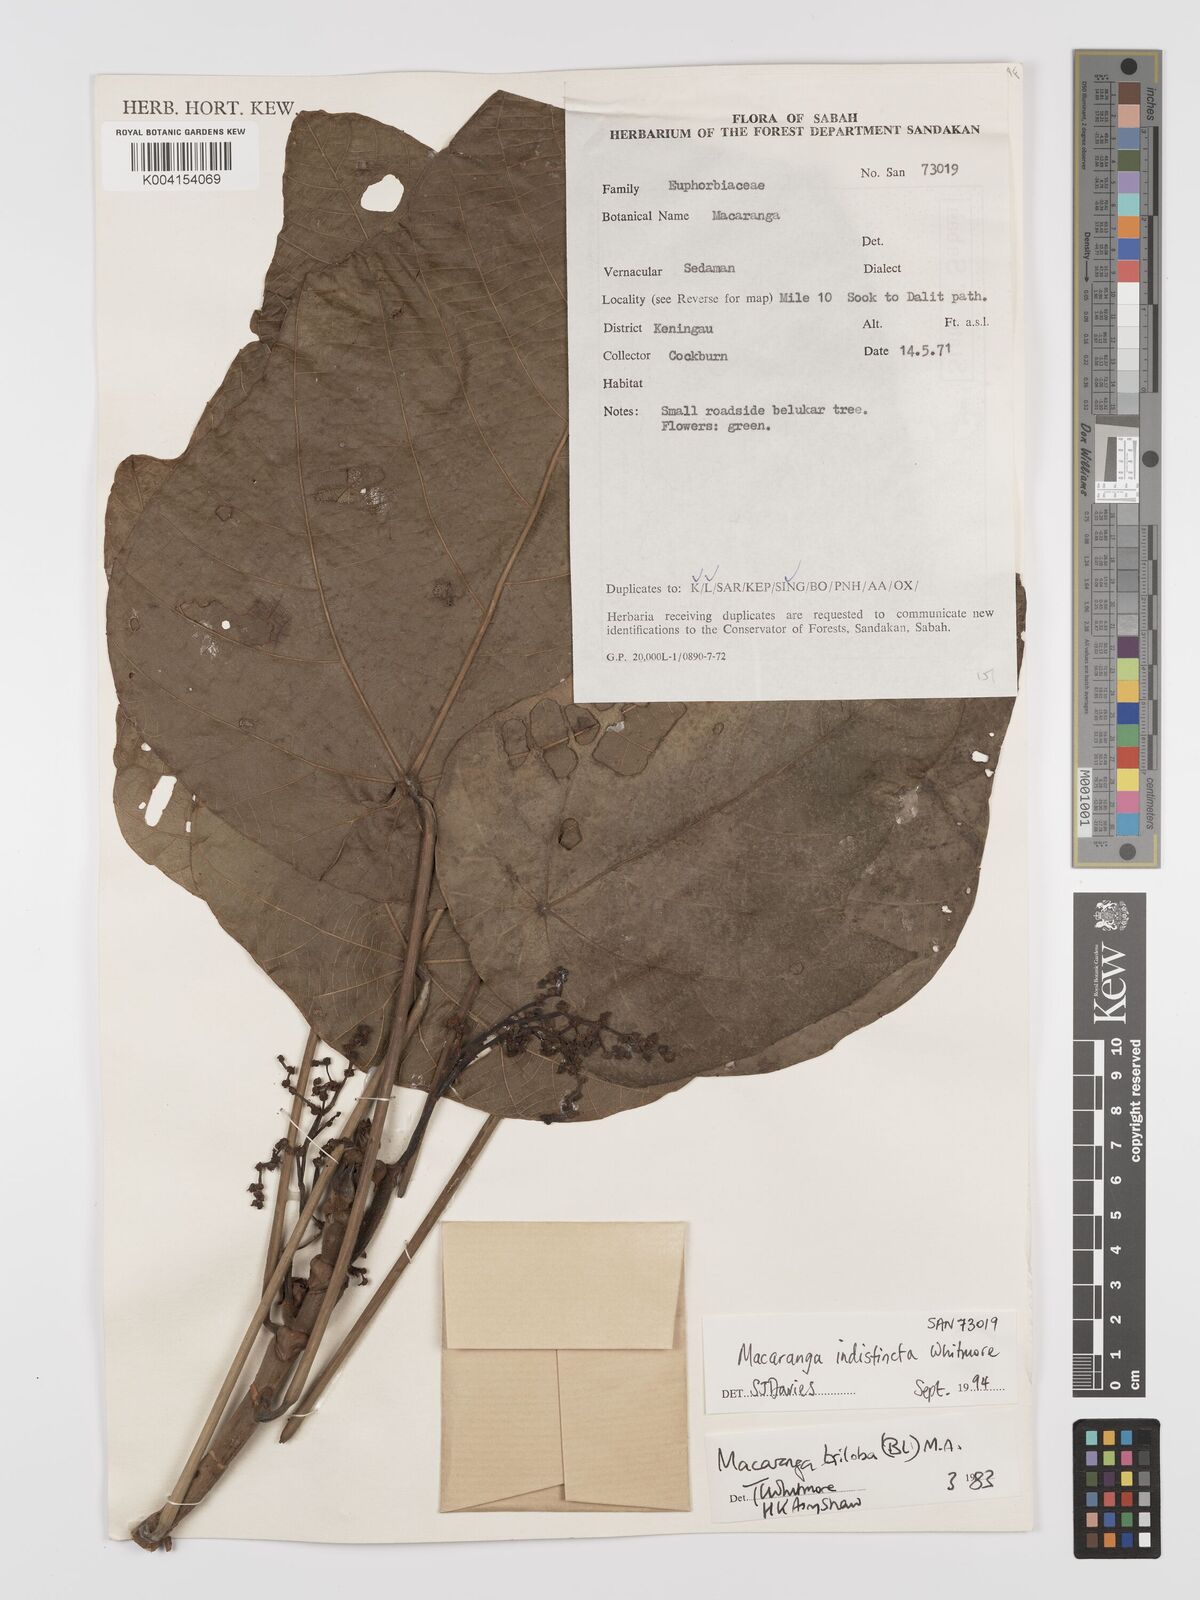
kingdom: Plantae
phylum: Tracheophyta
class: Magnoliopsida
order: Malpighiales
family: Euphorbiaceae
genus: Macaranga
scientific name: Macaranga indistincta
